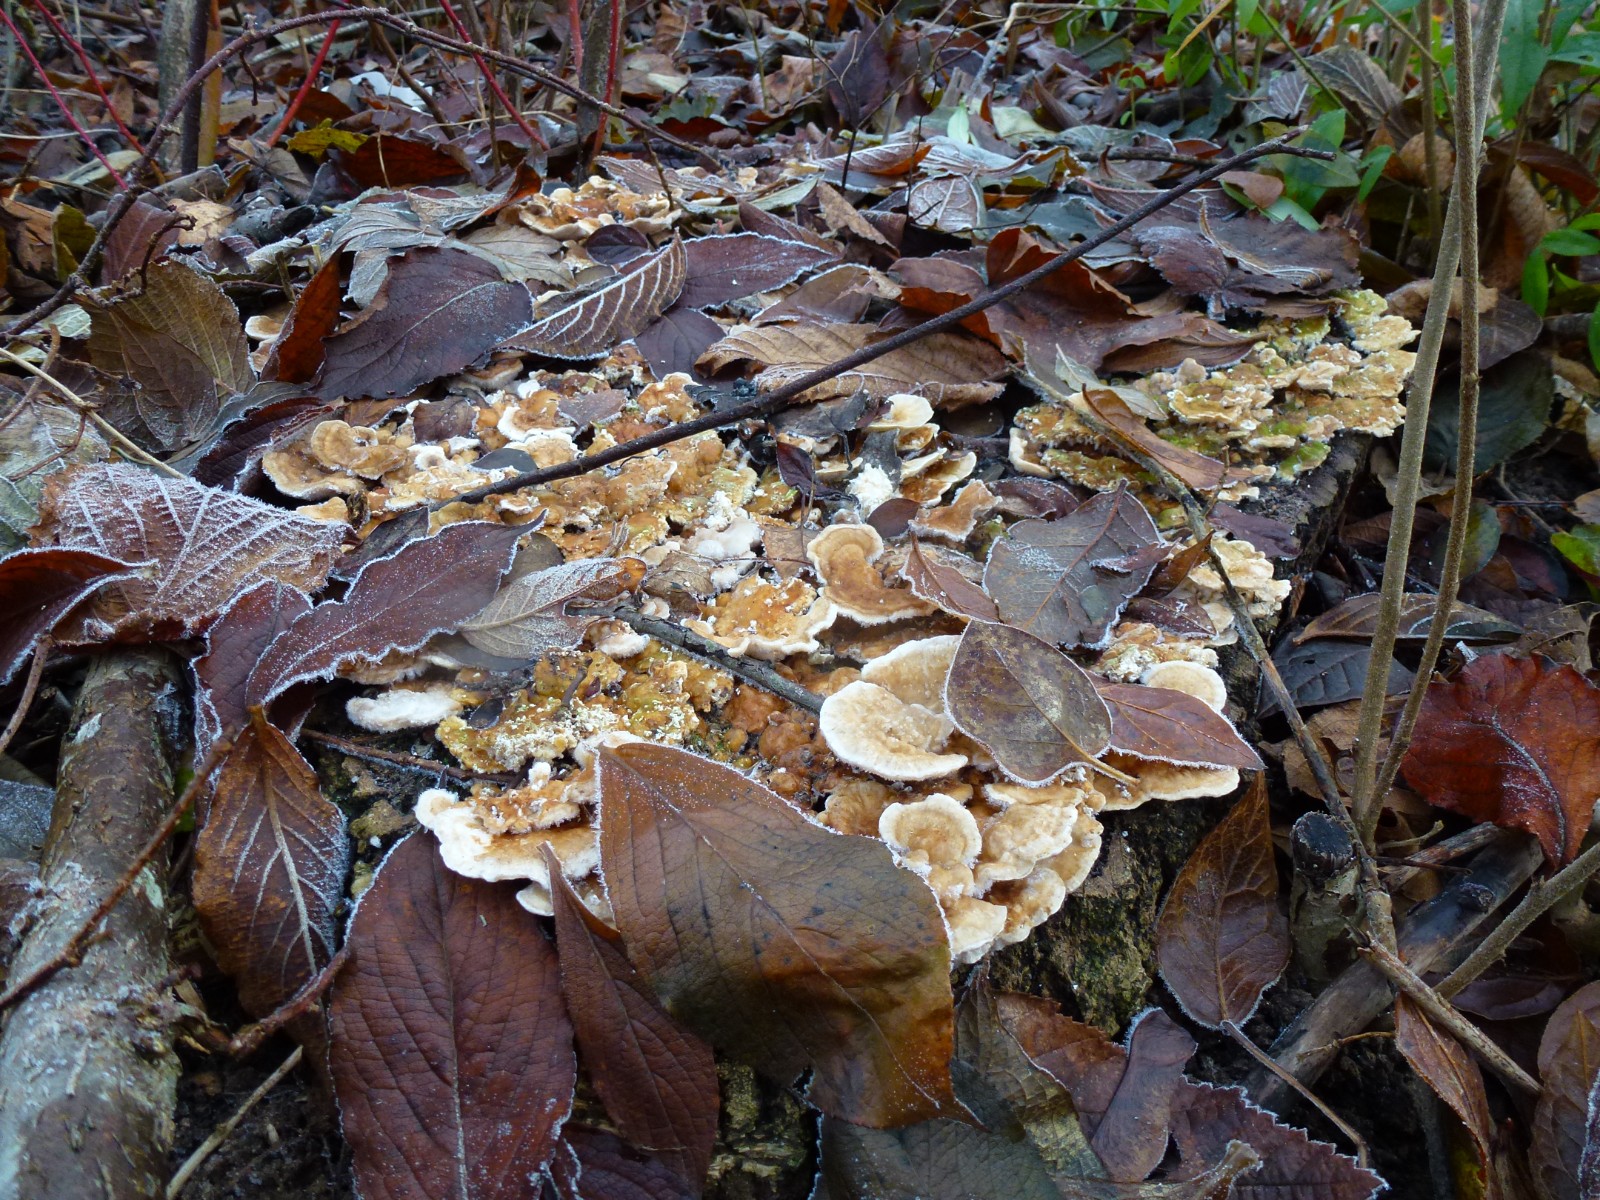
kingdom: Fungi
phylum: Basidiomycota
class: Agaricomycetes
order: Polyporales
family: Polyporaceae
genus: Trametes
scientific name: Trametes
